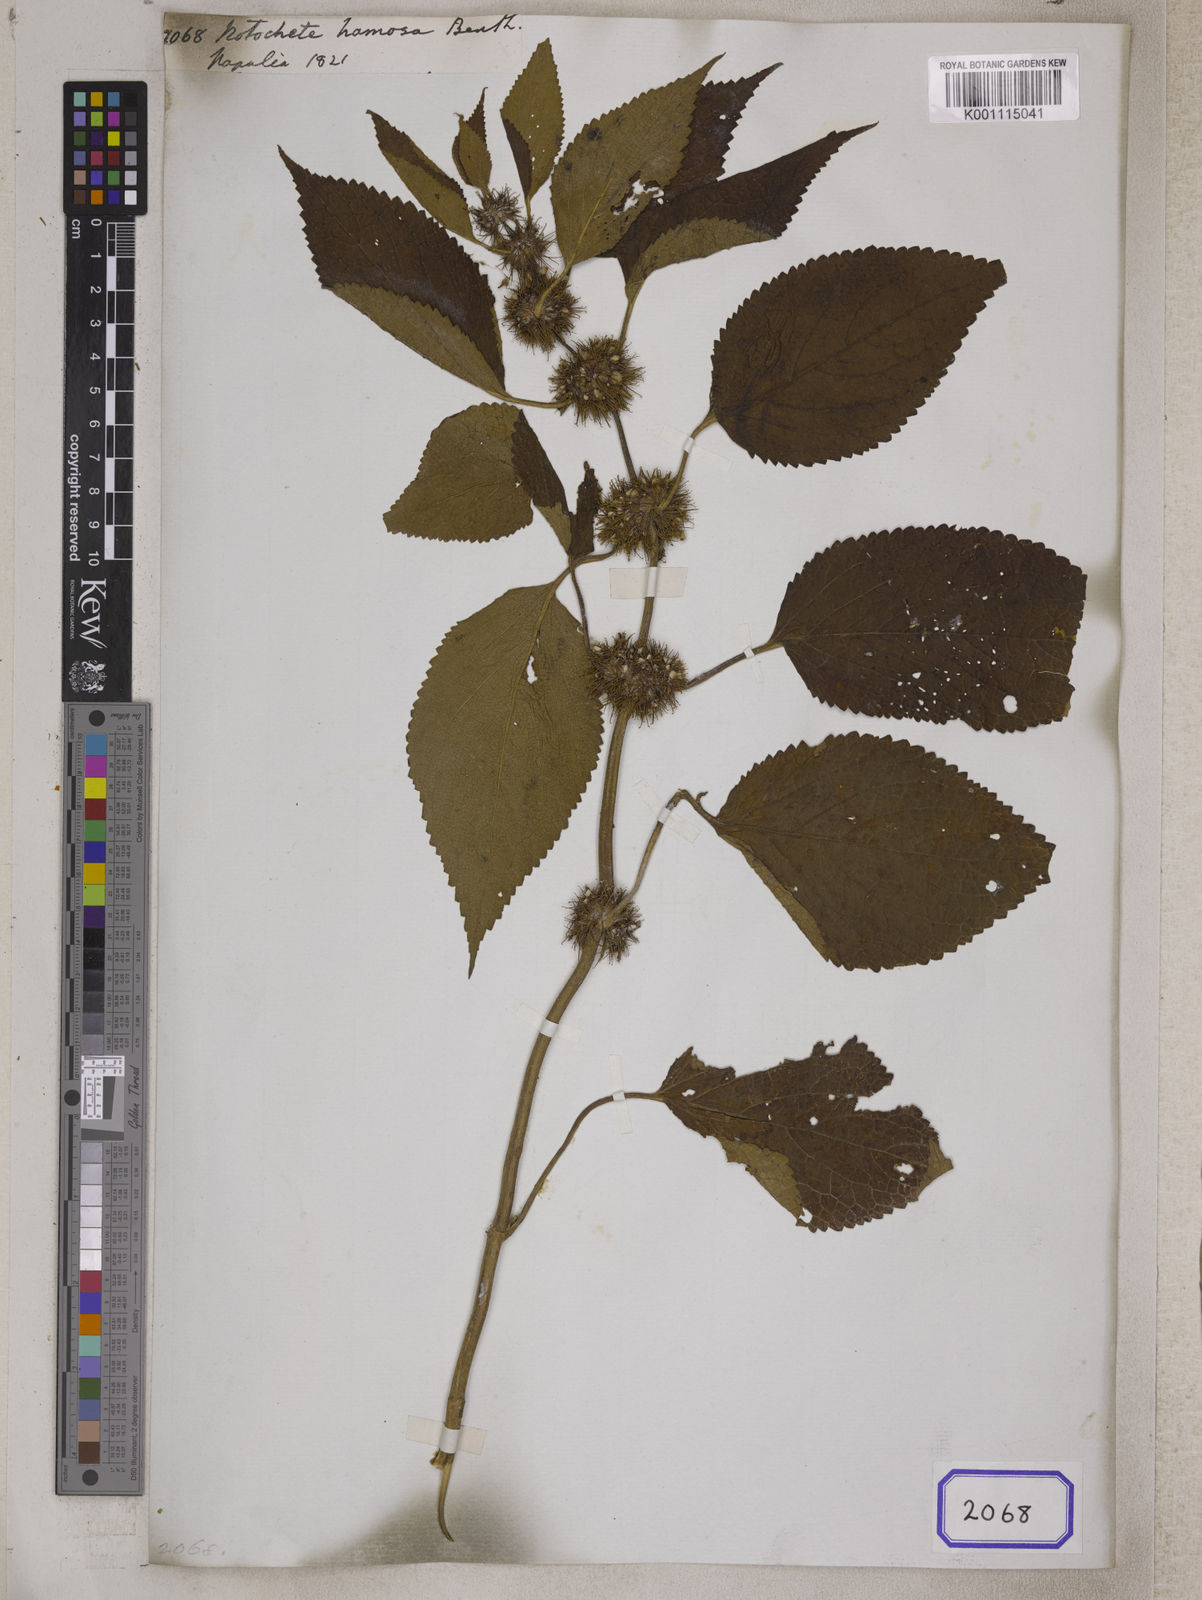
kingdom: Plantae
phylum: Tracheophyta
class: Magnoliopsida
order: Lamiales
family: Lamiaceae
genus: Phlomoides
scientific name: Phlomoides hamosa
